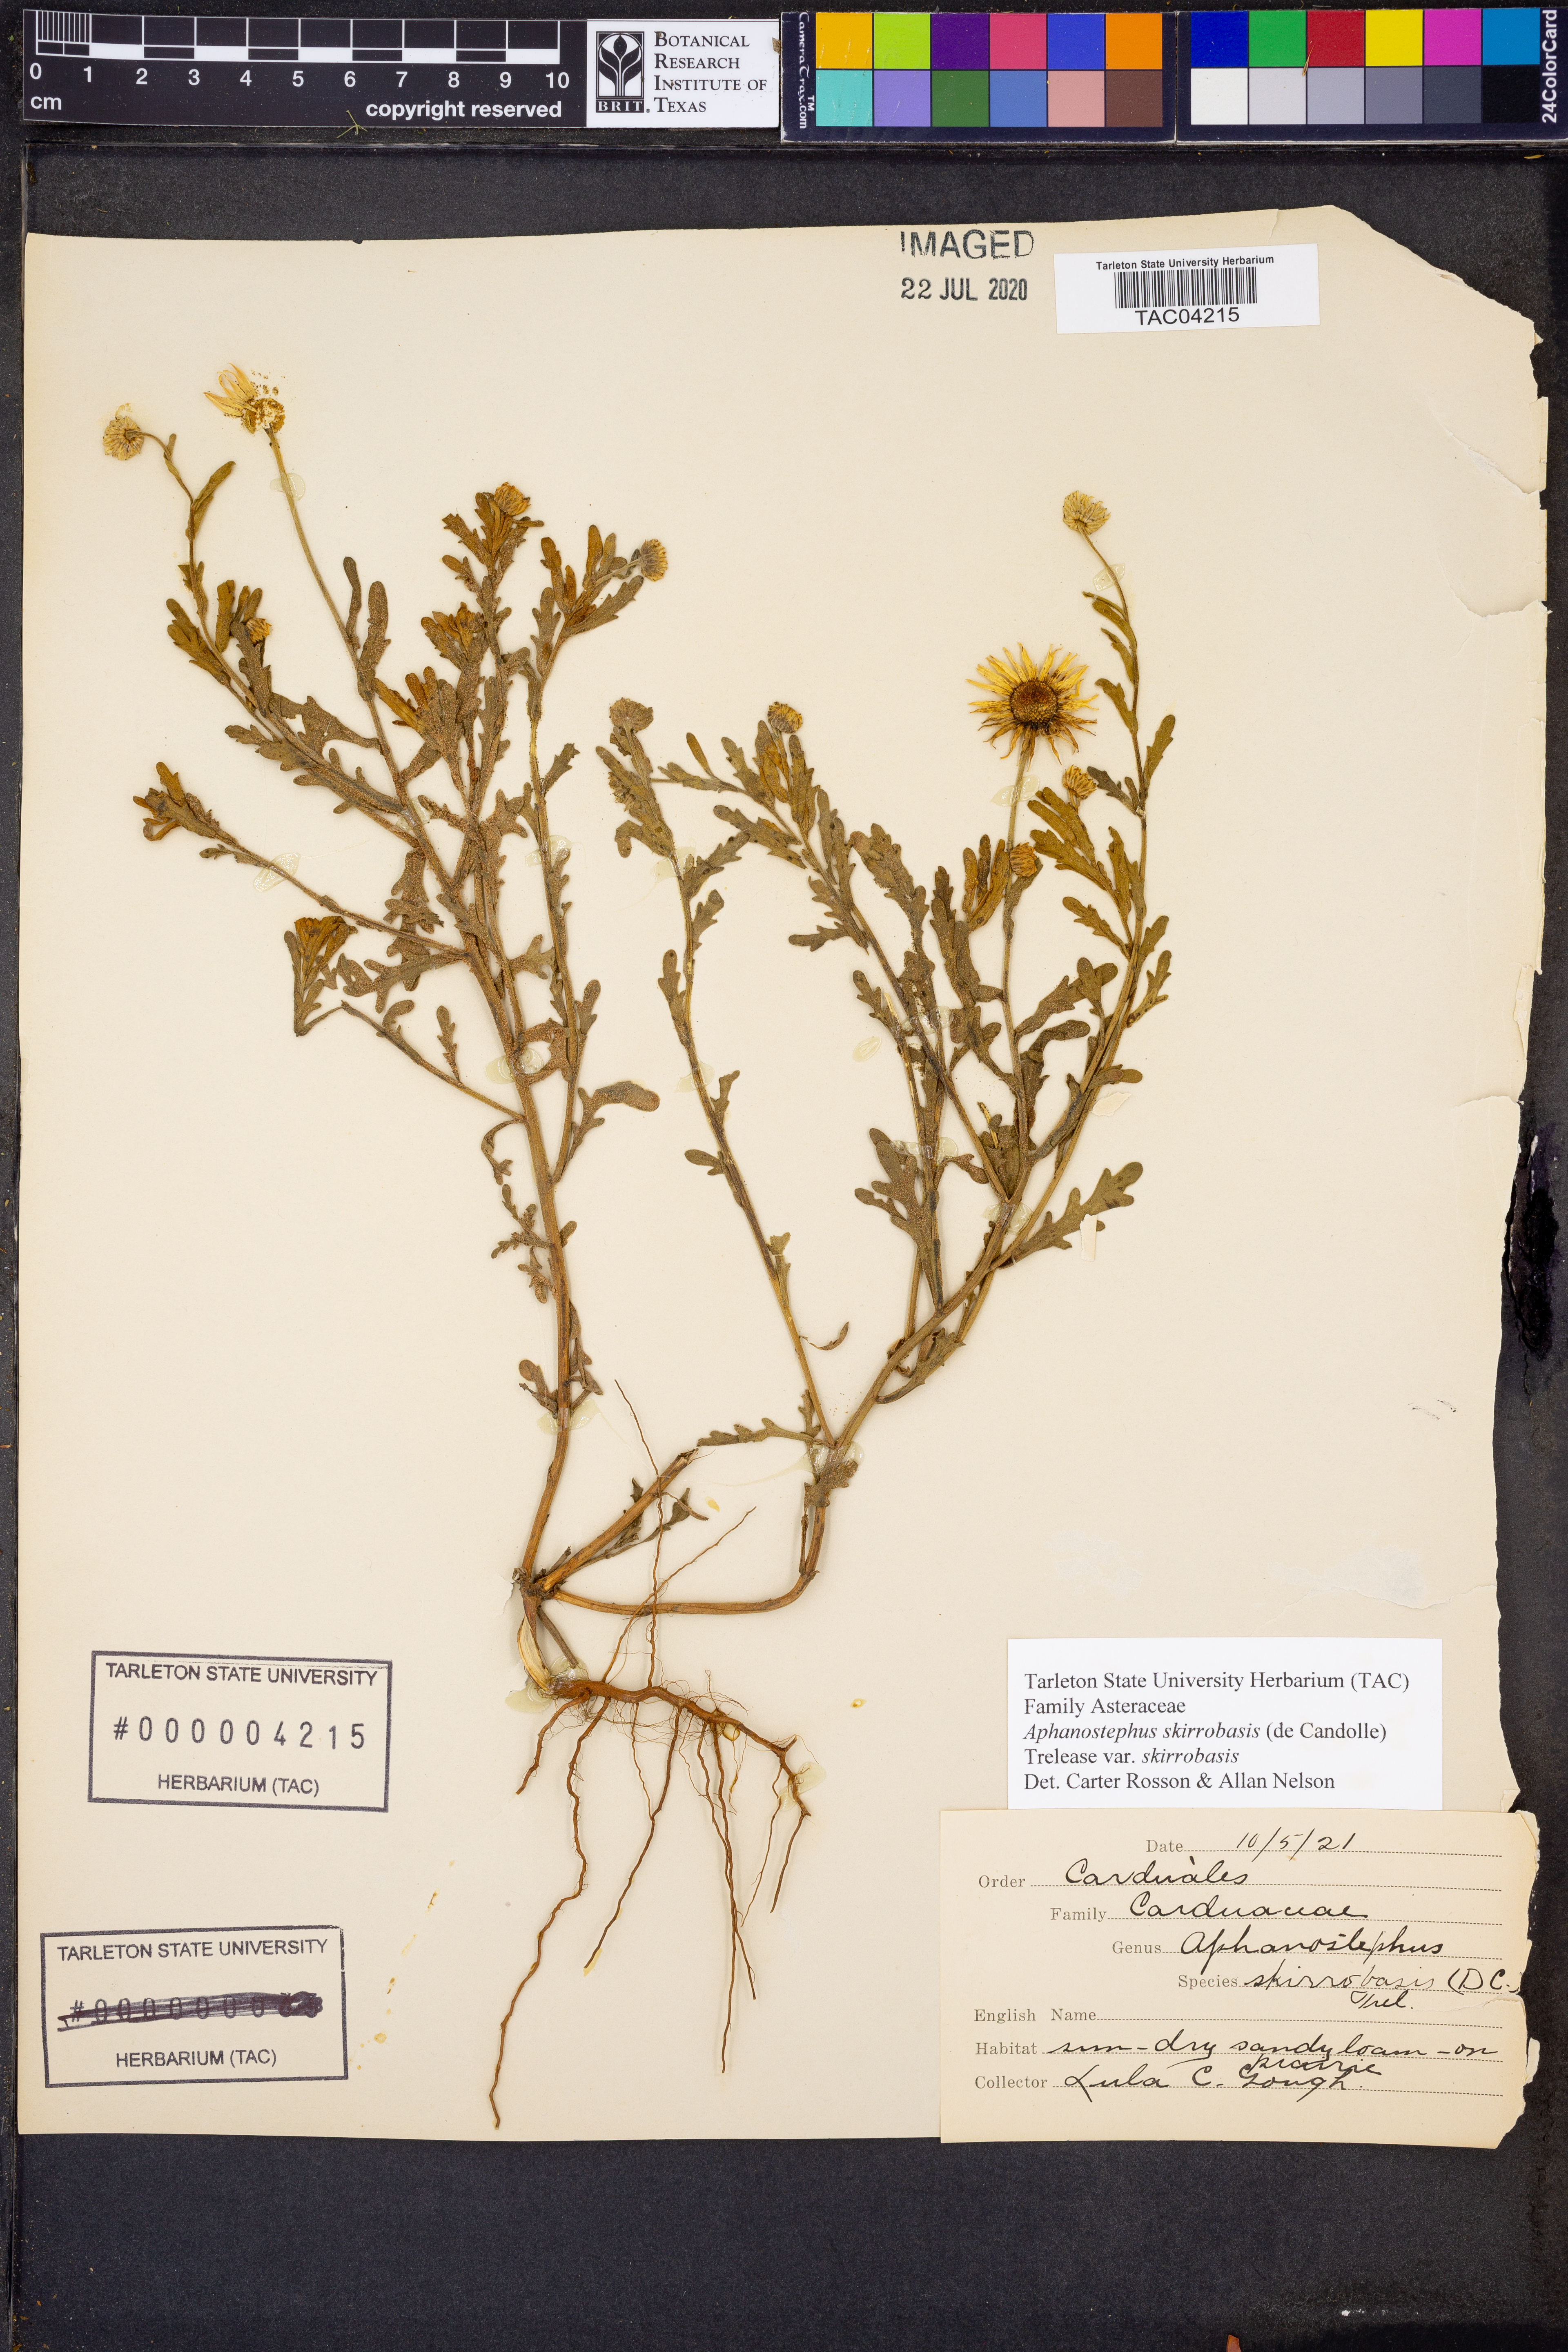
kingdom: Plantae
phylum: Tracheophyta
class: Magnoliopsida
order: Asterales
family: Asteraceae
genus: Aphanostephus
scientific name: Aphanostephus skirrhobasis
